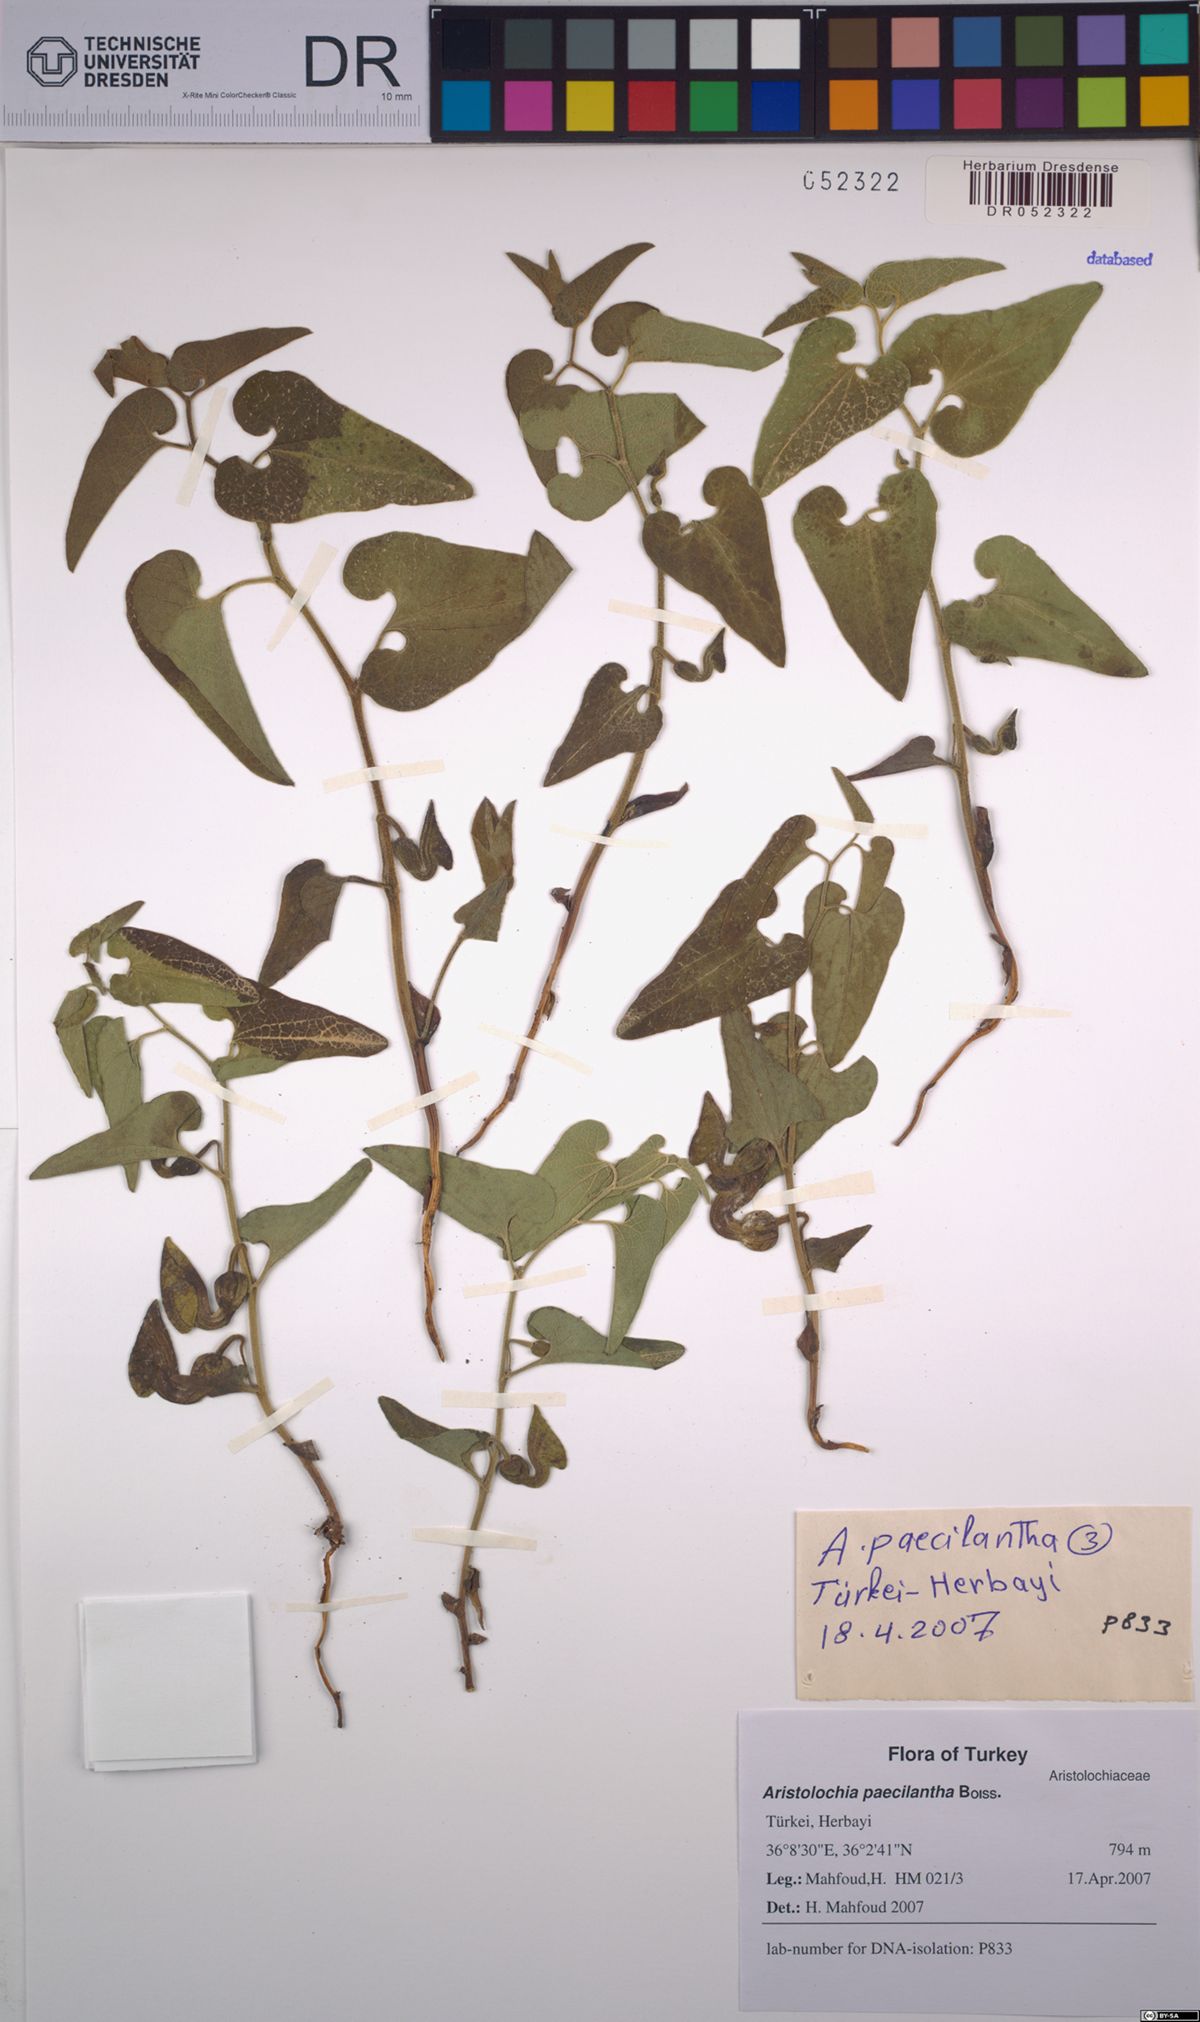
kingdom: Plantae
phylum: Tracheophyta
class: Magnoliopsida
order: Piperales
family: Aristolochiaceae
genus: Aristolochia
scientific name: Aristolochia paecilantha
